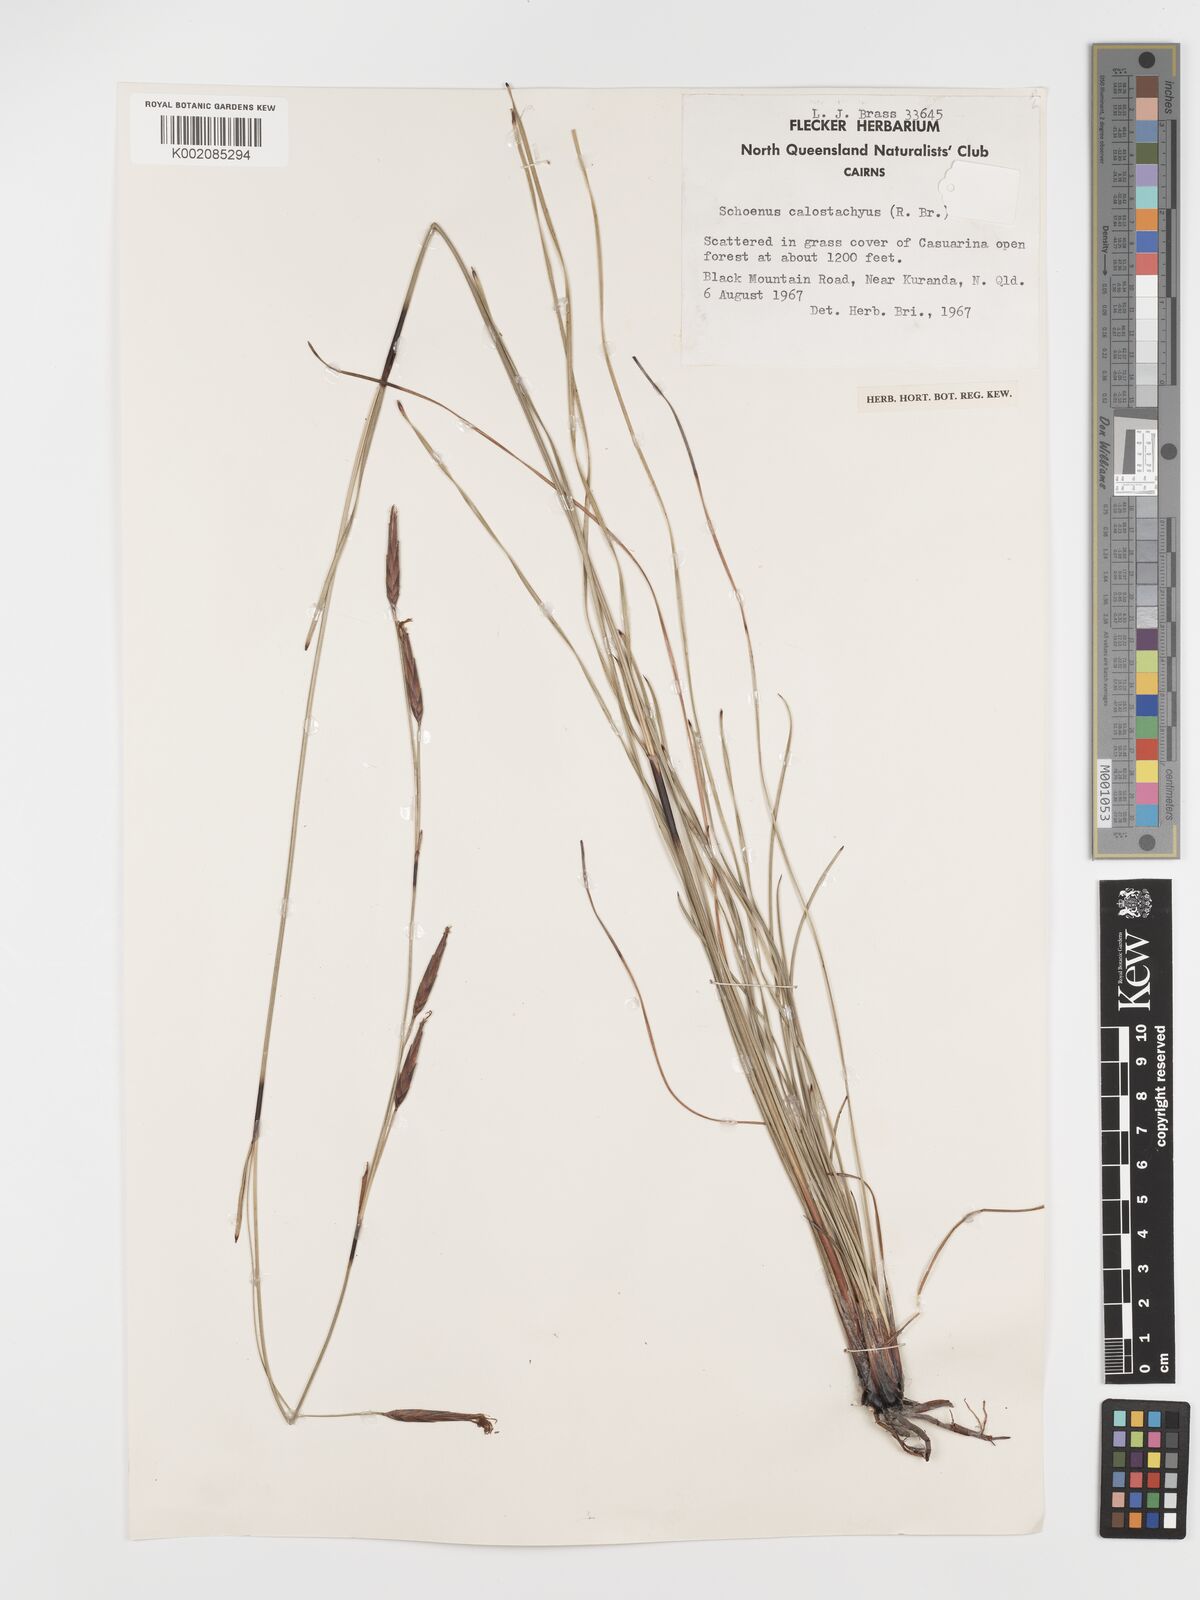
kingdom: Plantae
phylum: Tracheophyta
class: Liliopsida
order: Poales
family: Cyperaceae
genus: Schoenus
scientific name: Schoenus calostachyus
